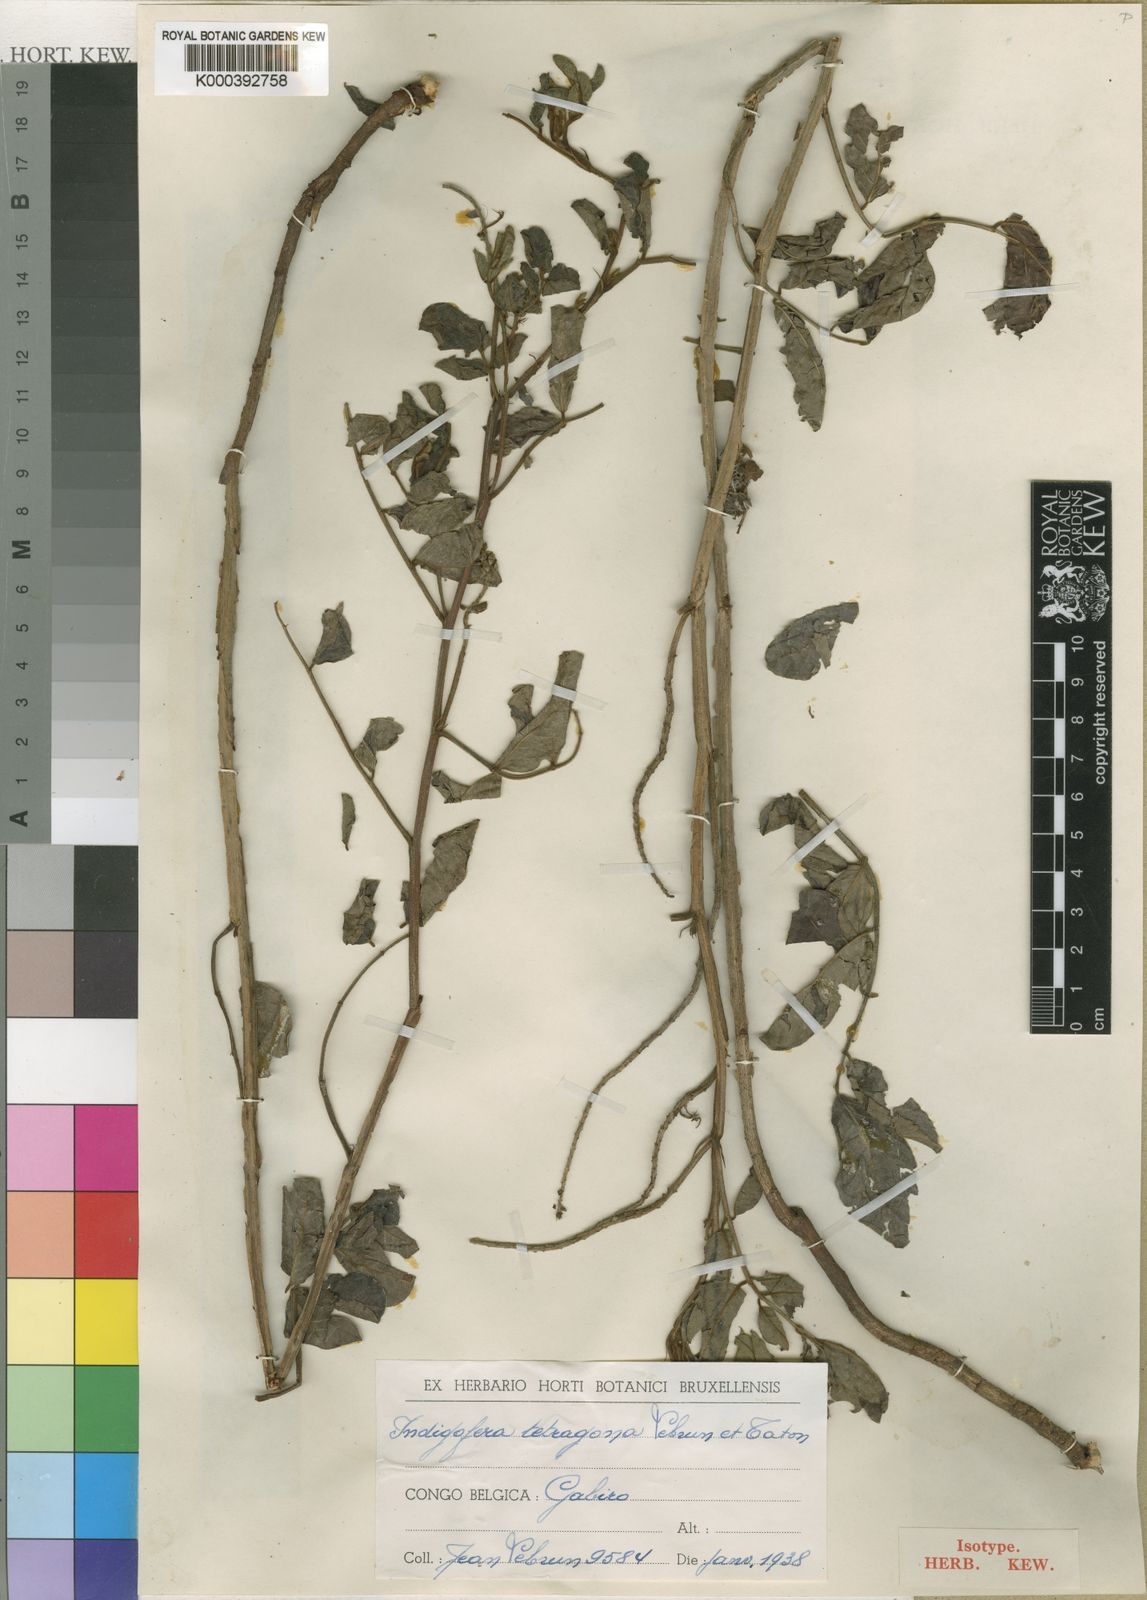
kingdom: Plantae
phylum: Tracheophyta
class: Magnoliopsida
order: Fabales
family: Fabaceae
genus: Indigofera
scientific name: Indigofera garckeana
